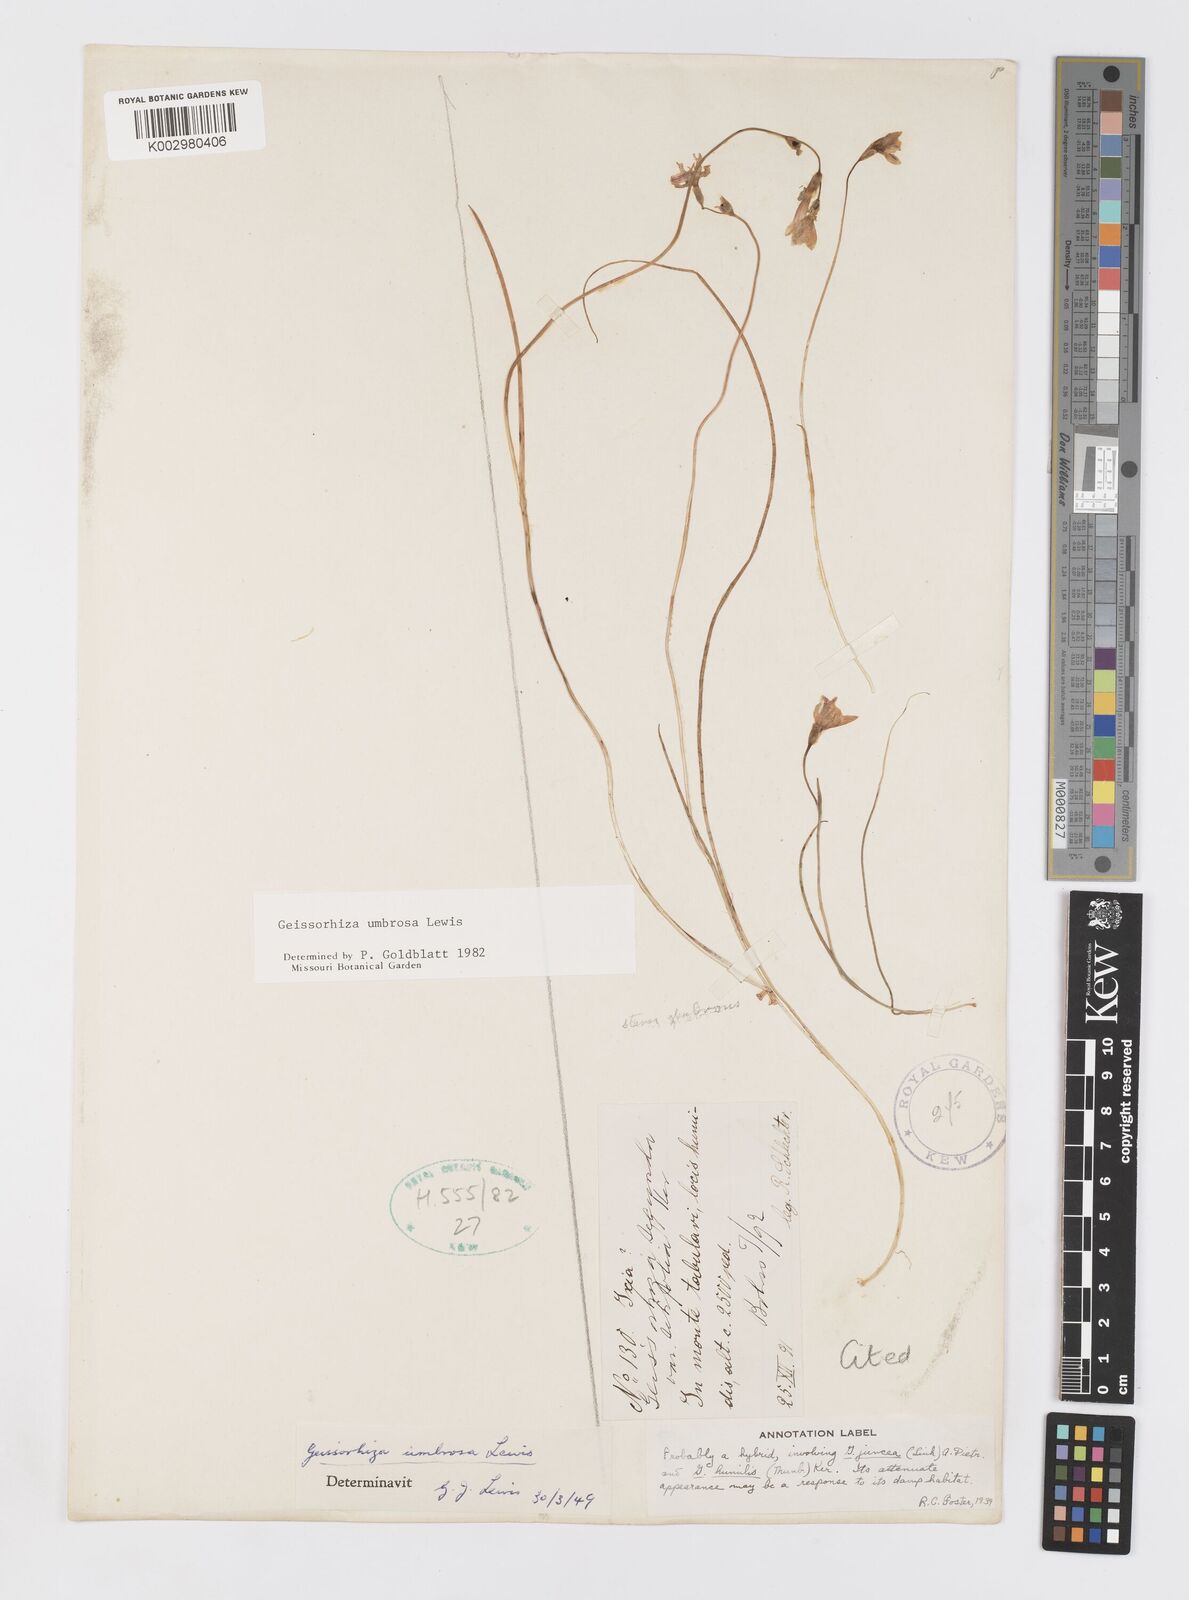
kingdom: Plantae
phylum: Tracheophyta
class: Liliopsida
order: Asparagales
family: Iridaceae
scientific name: Iridaceae
